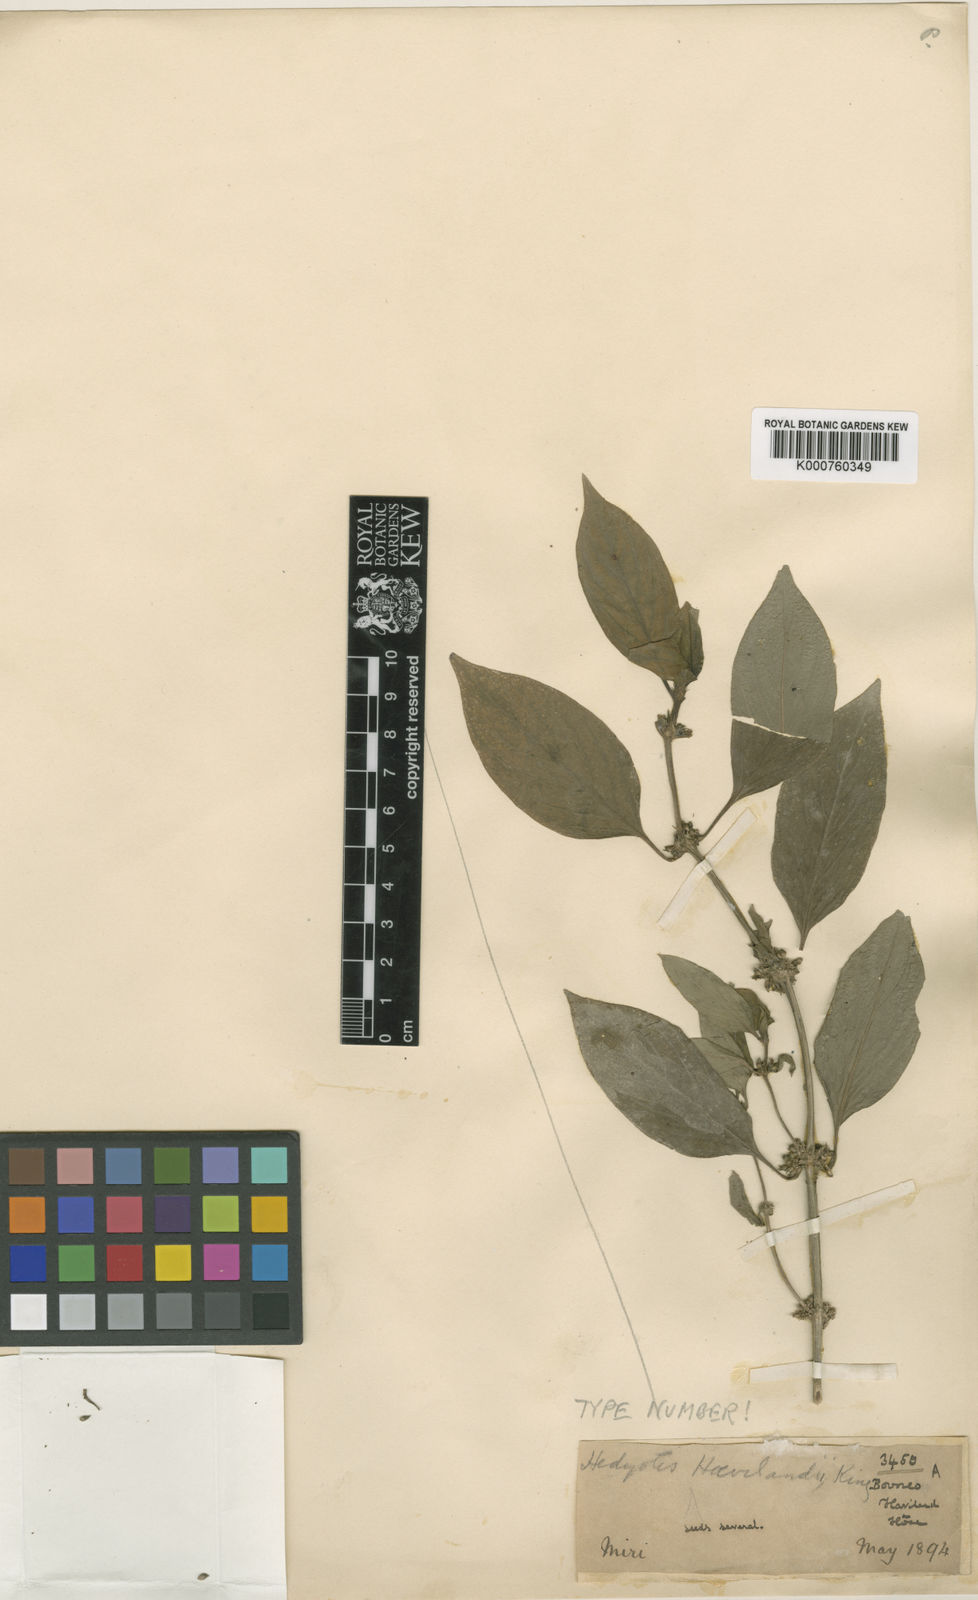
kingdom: Plantae
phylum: Tracheophyta
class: Magnoliopsida
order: Gentianales
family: Rubiaceae
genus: Hedyotis
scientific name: Hedyotis havilandii
